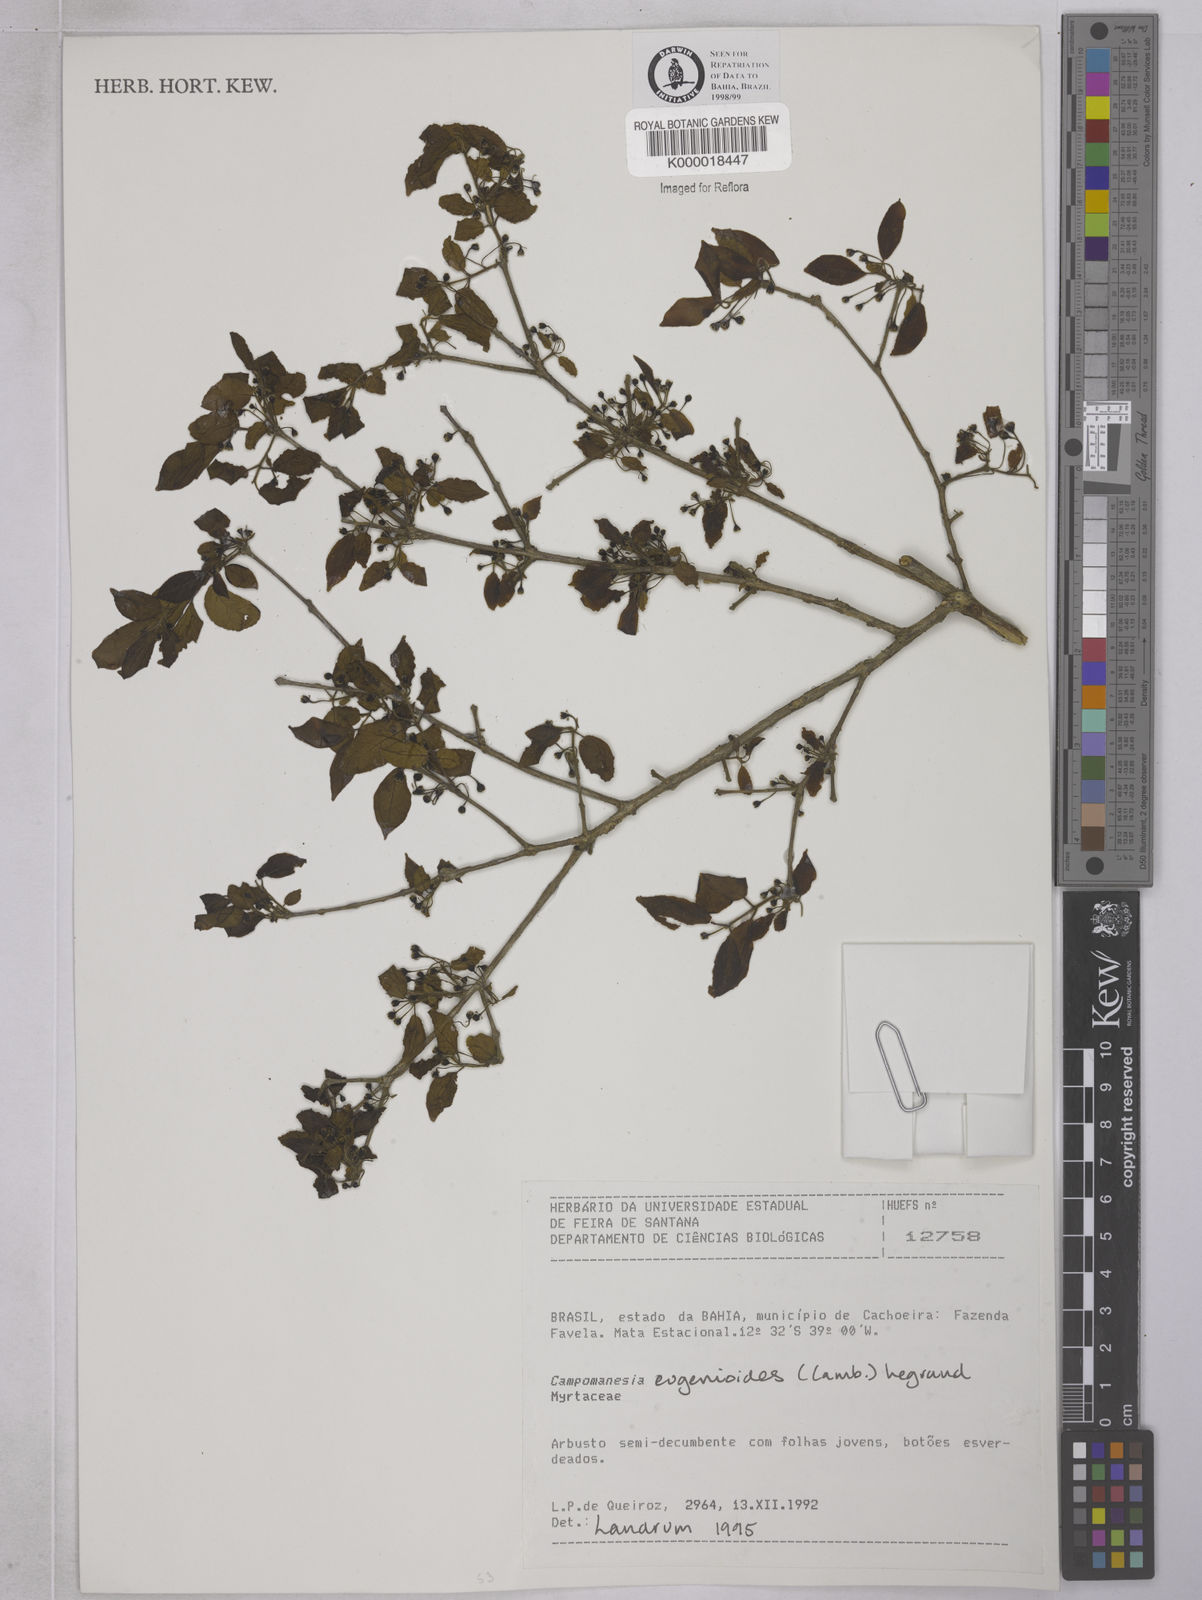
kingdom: Plantae
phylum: Tracheophyta
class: Magnoliopsida
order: Myrtales
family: Myrtaceae
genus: Campomanesia
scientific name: Campomanesia
